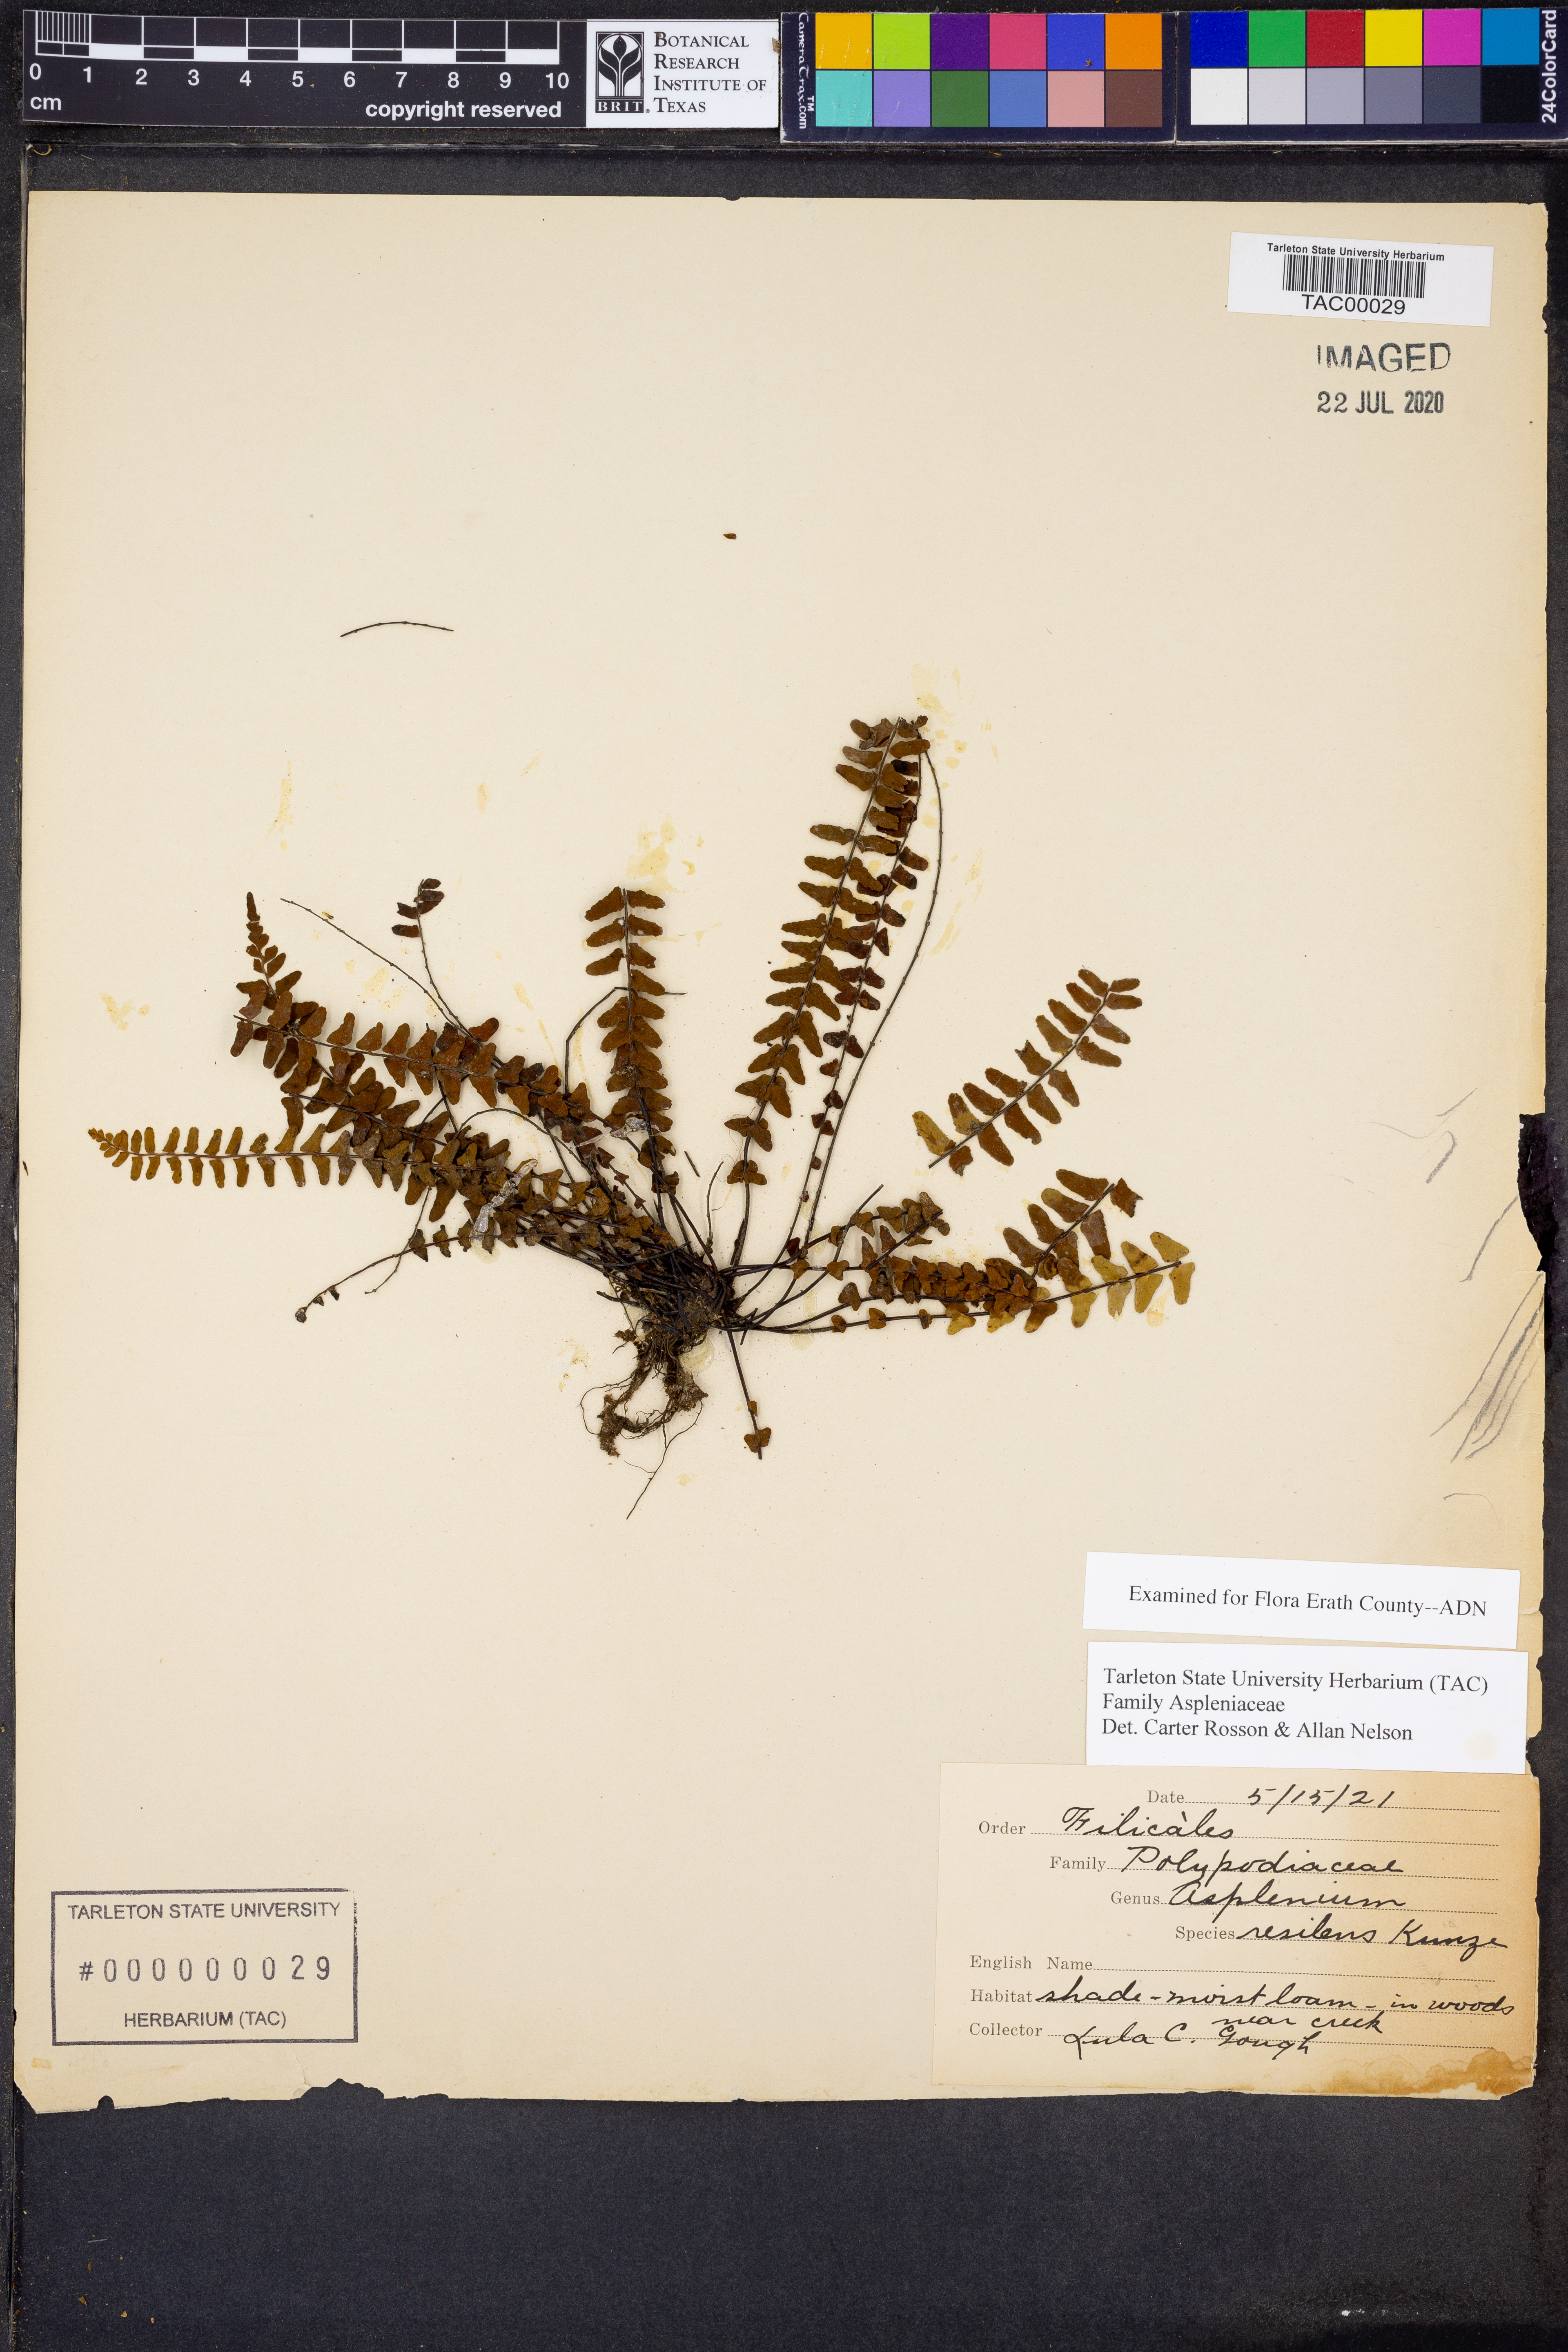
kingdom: Plantae
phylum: Tracheophyta
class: Polypodiopsida
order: Polypodiales
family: Aspleniaceae
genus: Asplenium
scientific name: Asplenium resiliens
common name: Blackstem spleenwort
